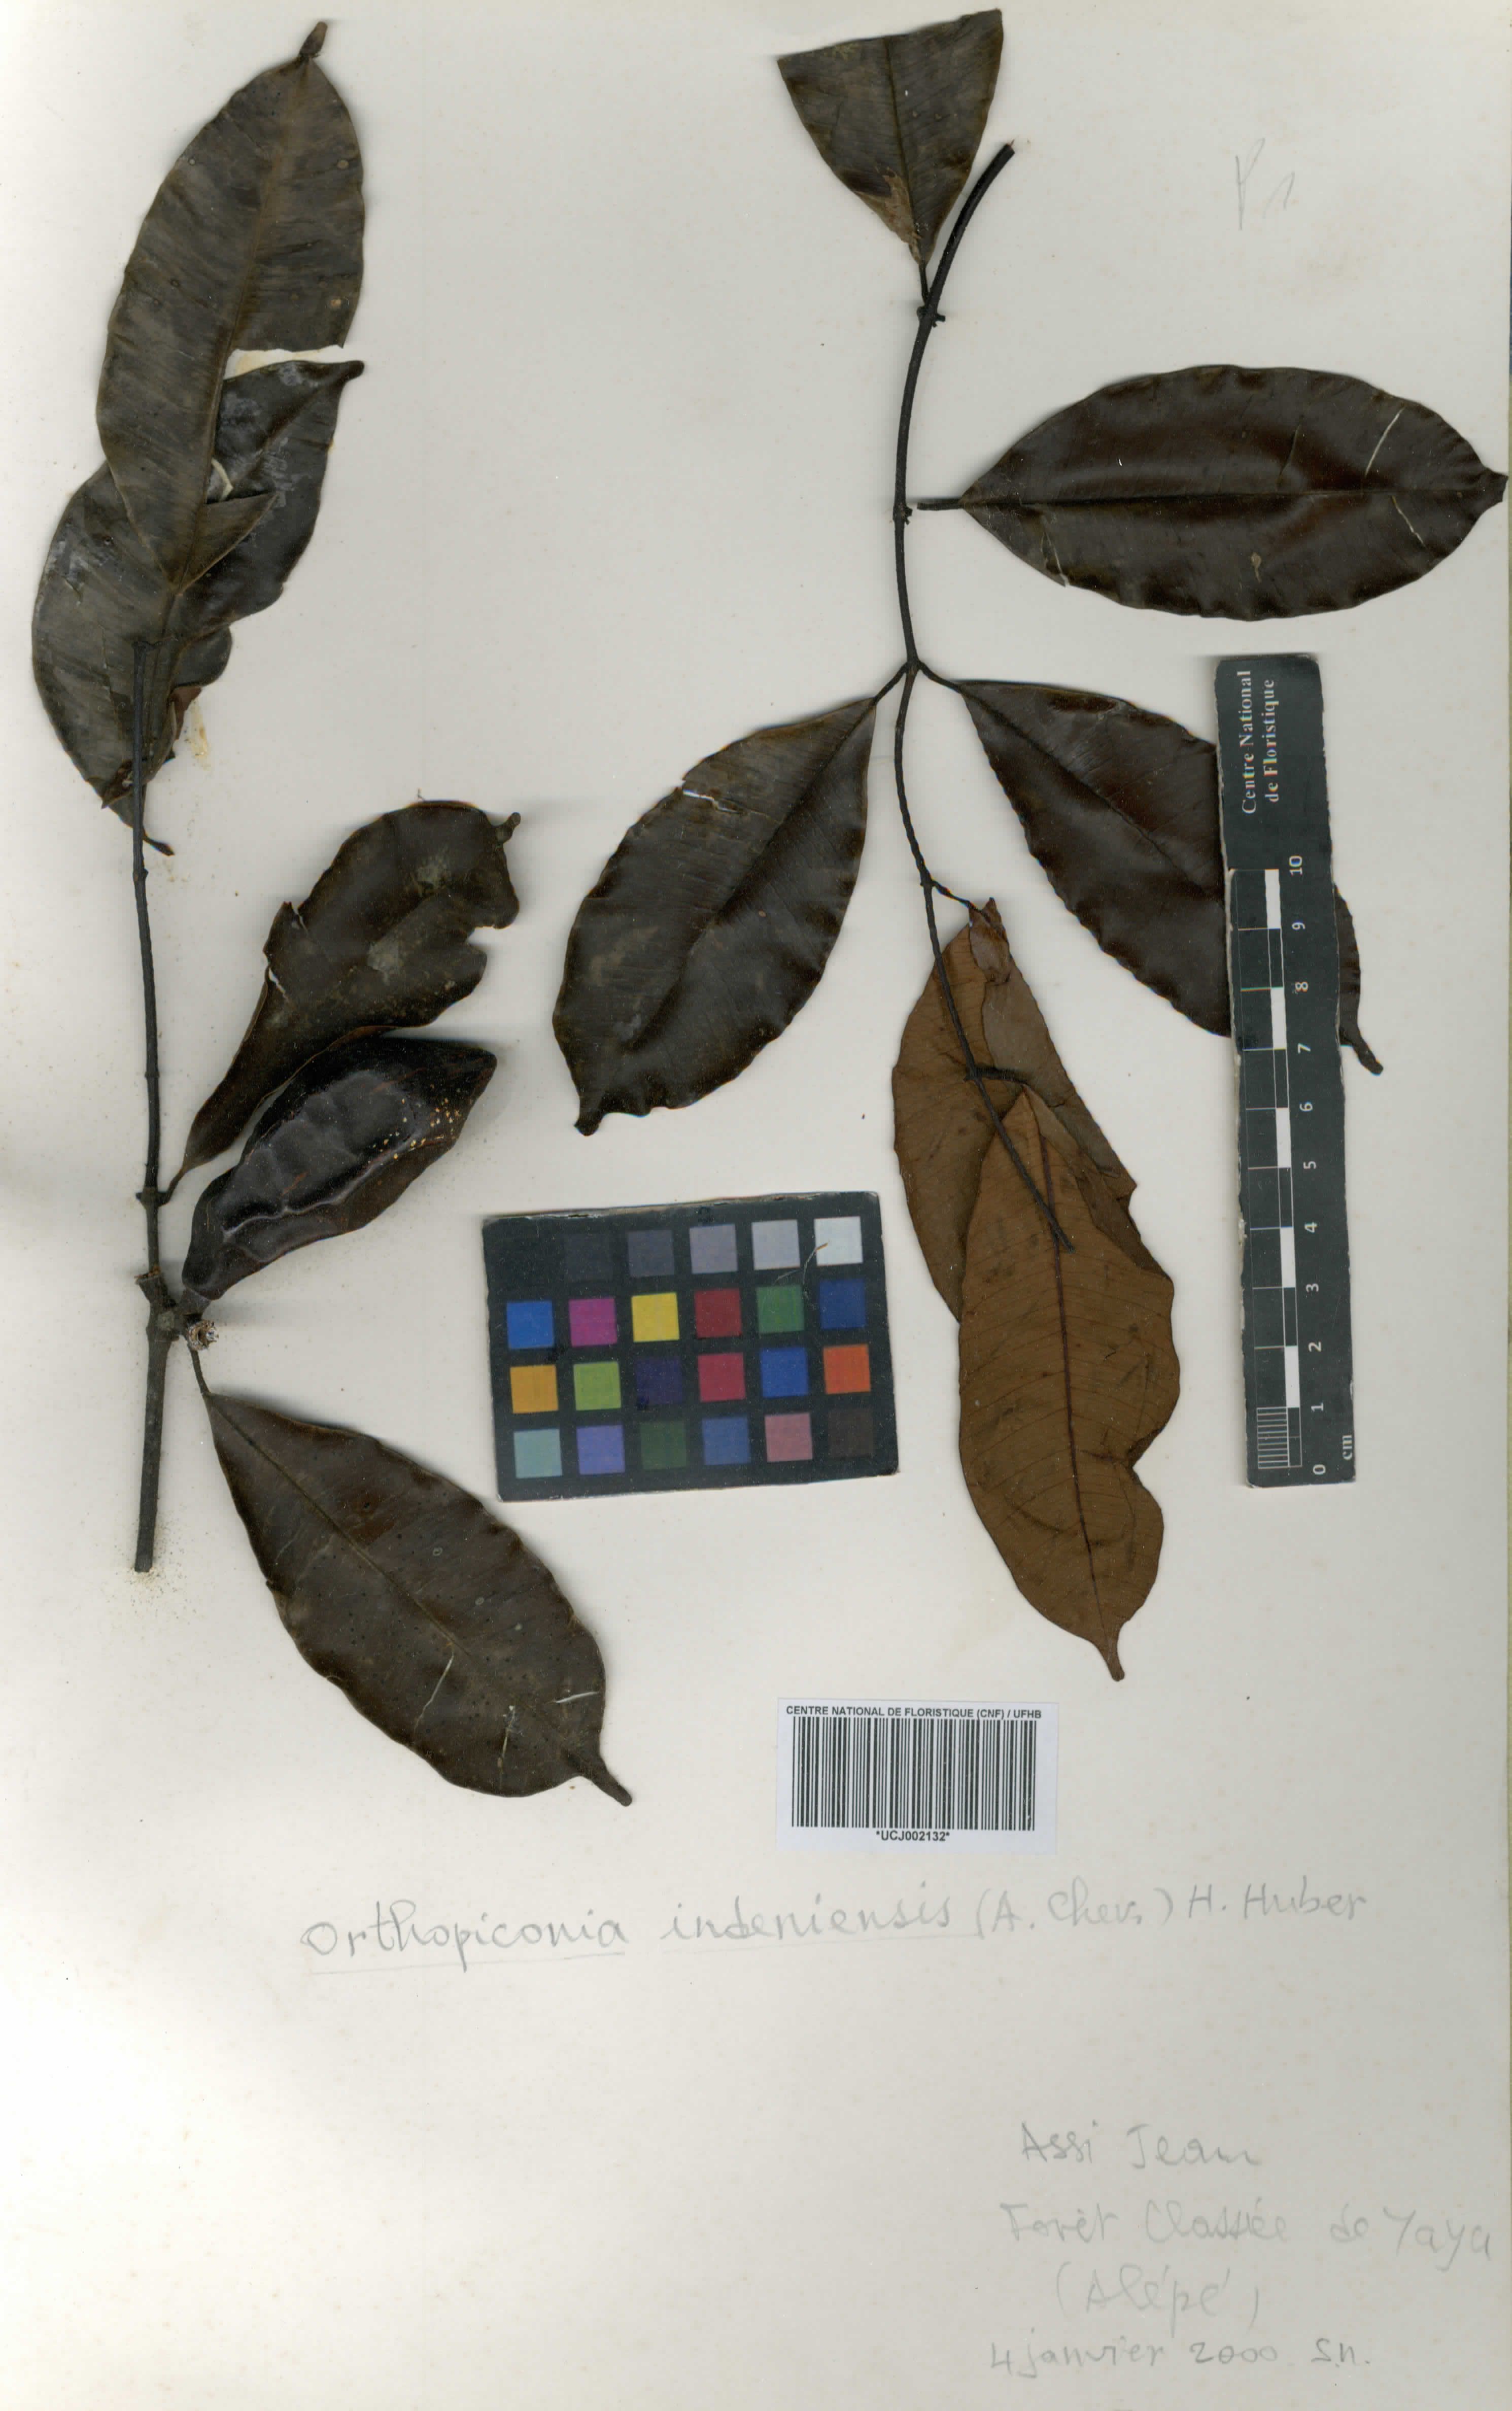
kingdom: Plantae
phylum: Tracheophyta
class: Magnoliopsida
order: Gentianales
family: Apocynaceae
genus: Orthopichonia
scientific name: Orthopichonia indeniensis
